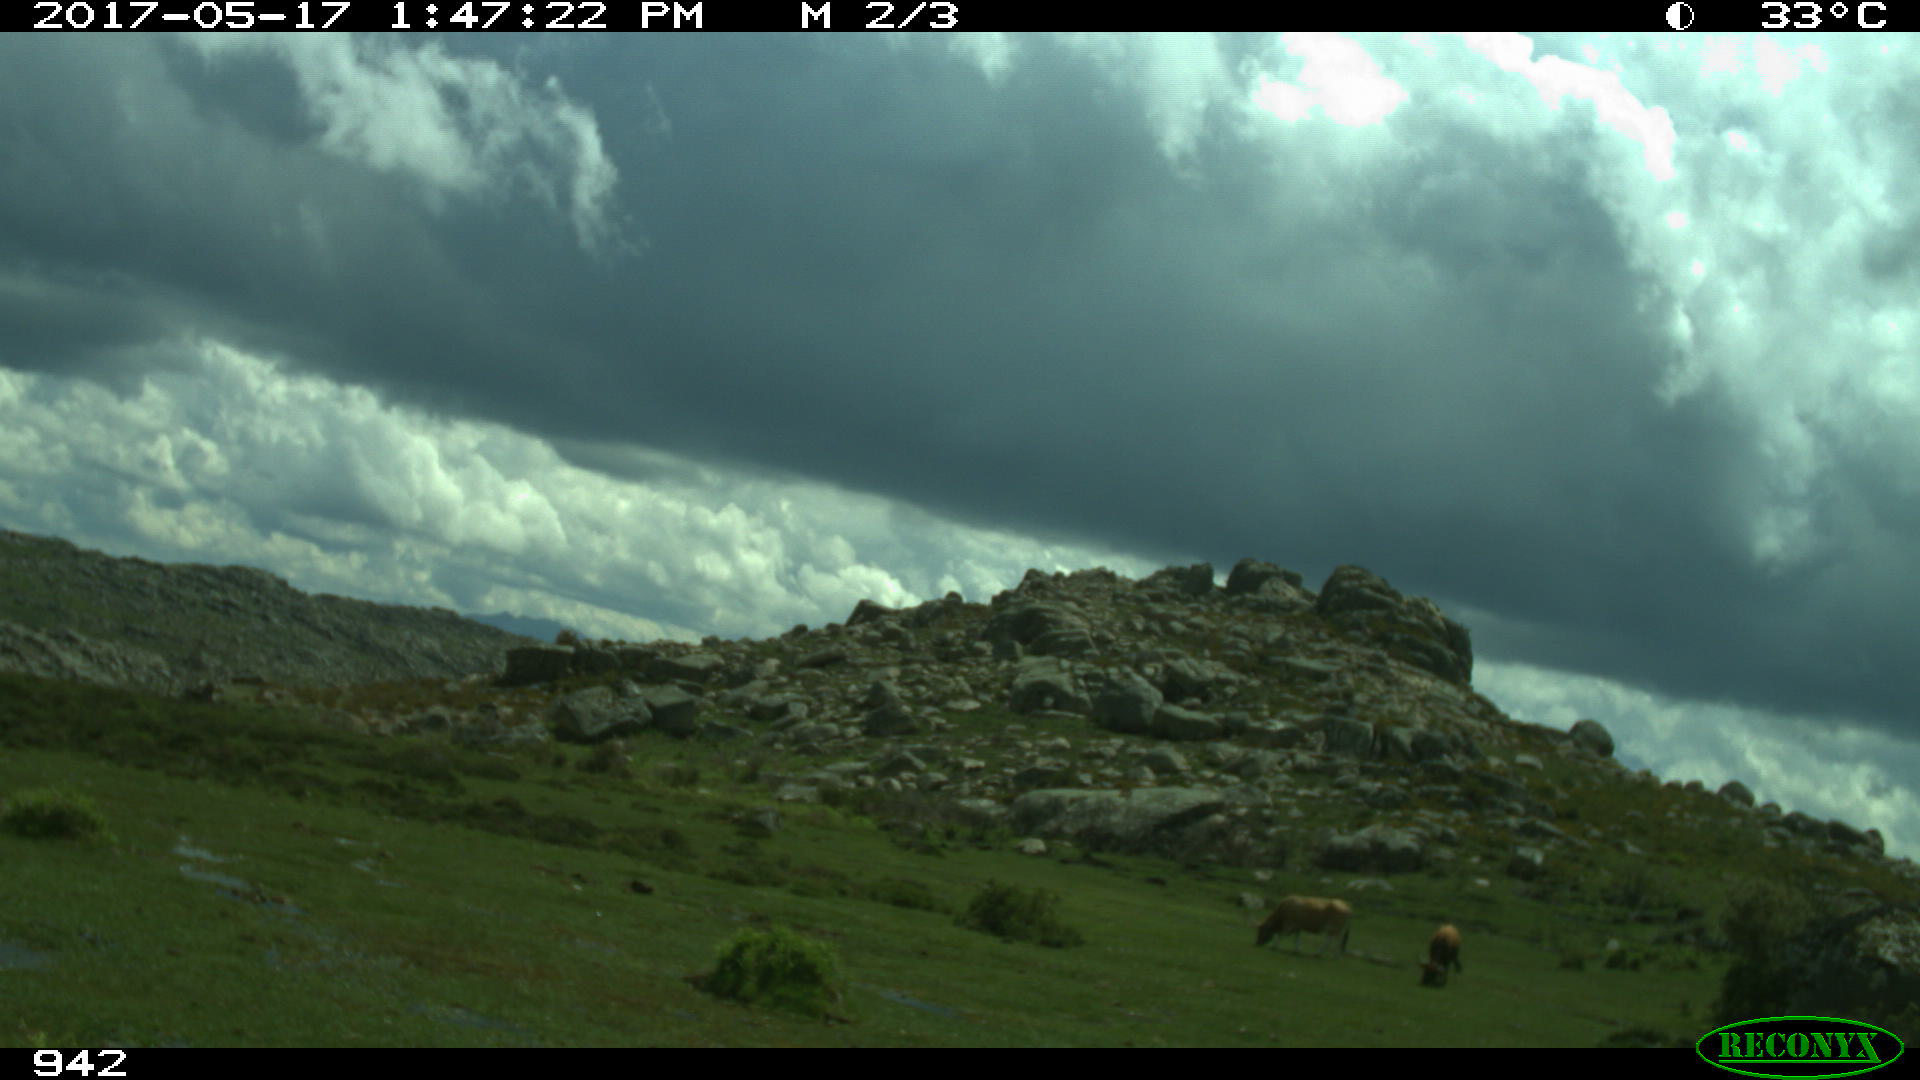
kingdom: Animalia
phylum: Chordata
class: Mammalia
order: Artiodactyla
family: Bovidae
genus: Bos
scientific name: Bos taurus
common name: Domesticated cattle
